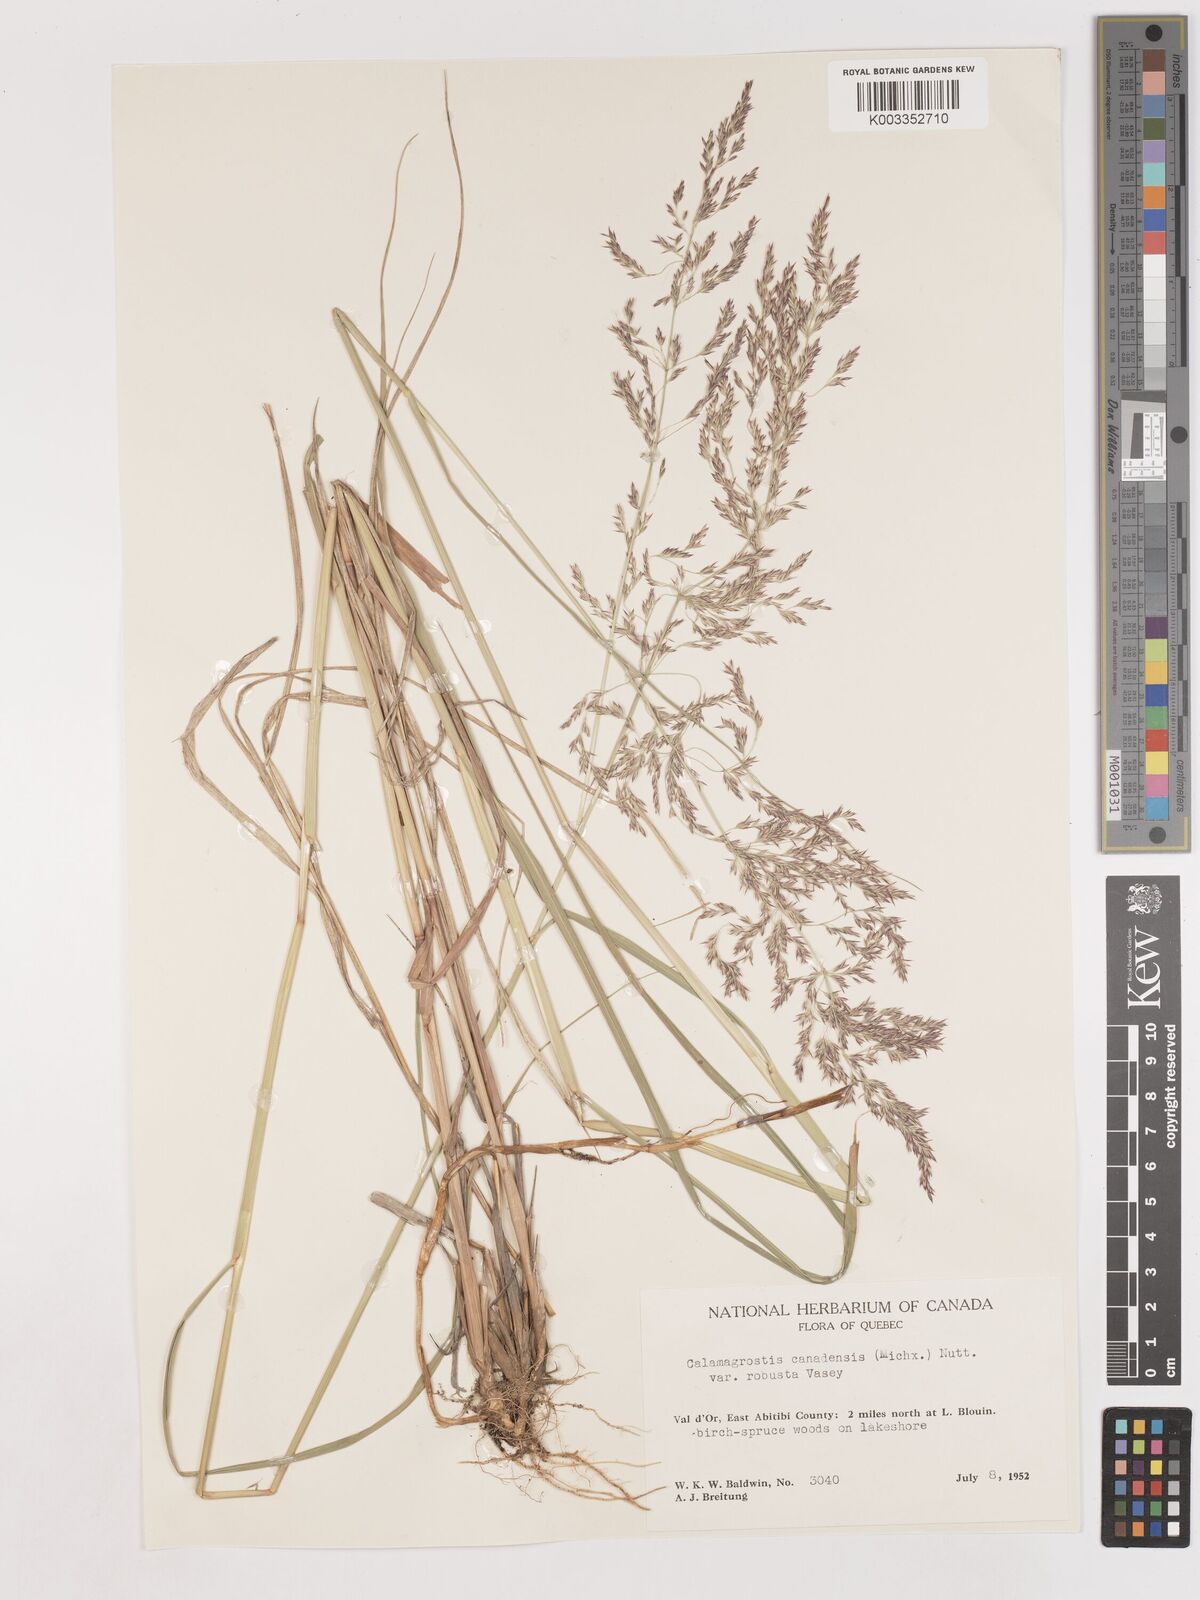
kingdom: Plantae
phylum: Tracheophyta
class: Liliopsida
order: Poales
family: Poaceae
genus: Calamagrostis
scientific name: Calamagrostis canadensis
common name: Canada bluejoint
